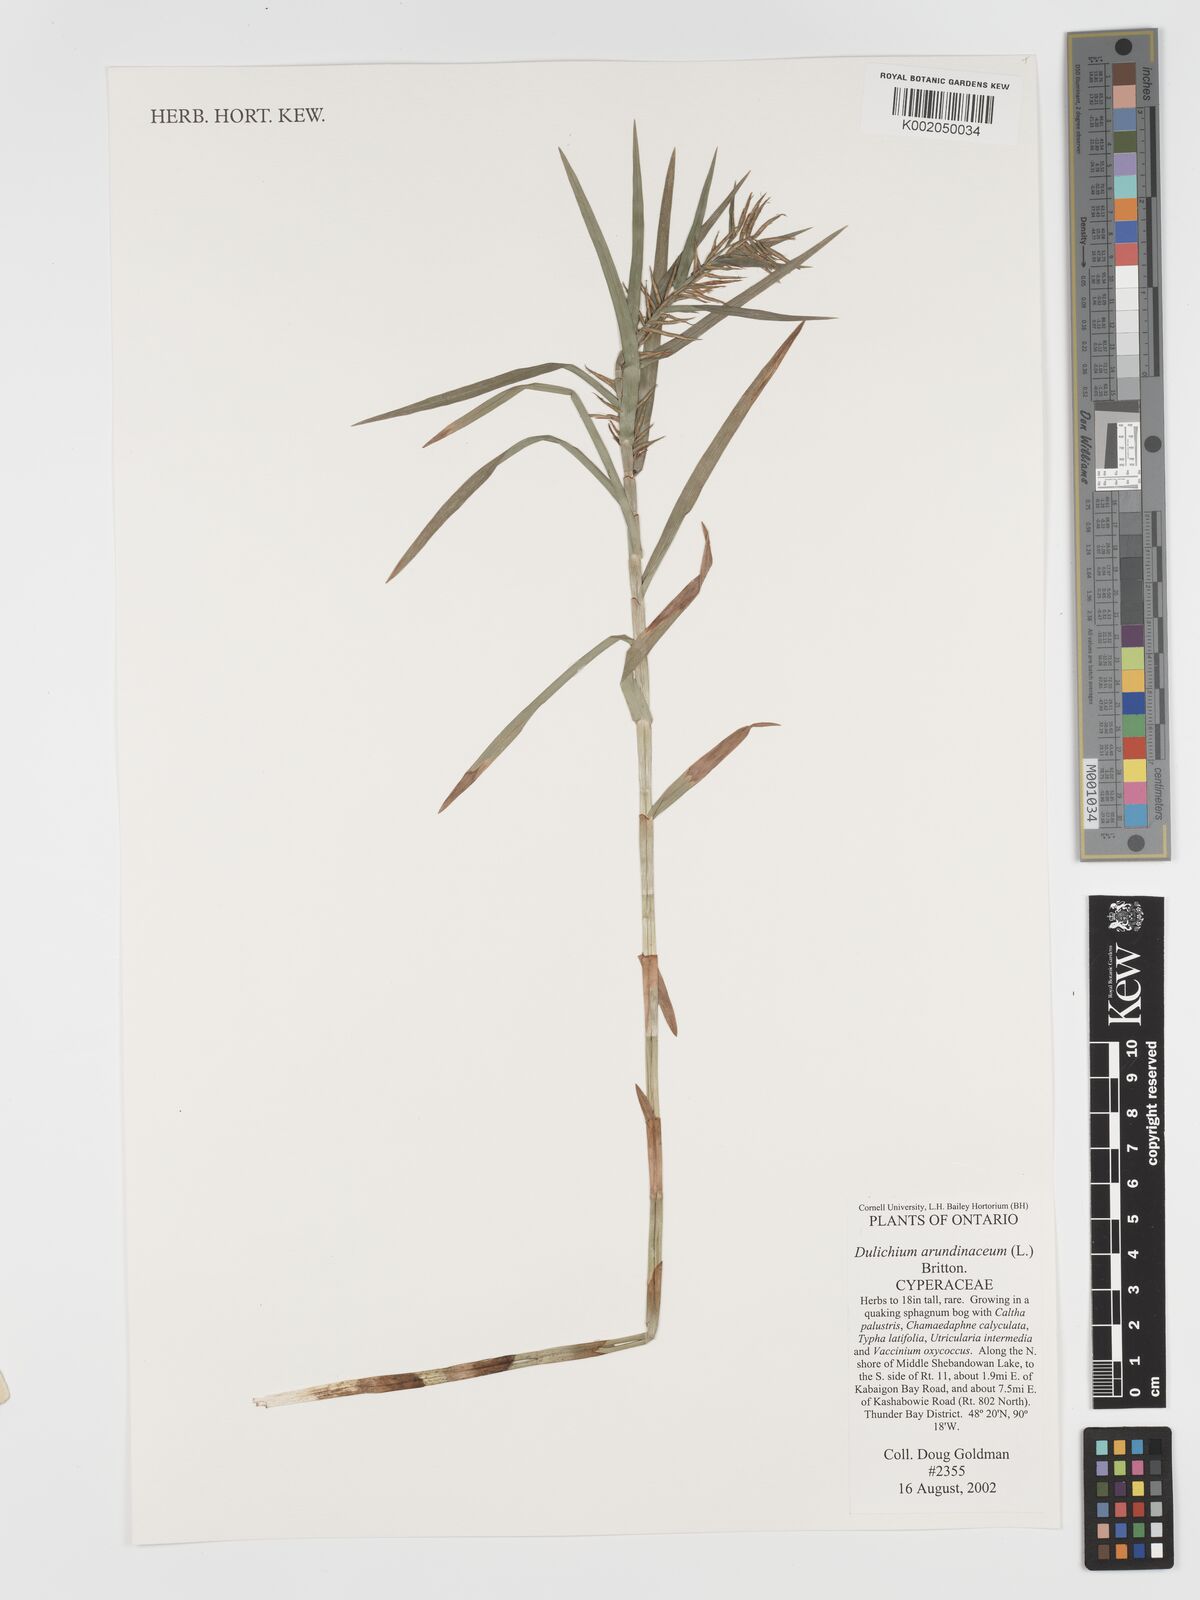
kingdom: Plantae
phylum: Tracheophyta
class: Liliopsida
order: Poales
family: Cyperaceae
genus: Dulichium
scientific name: Dulichium arundinaceum
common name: Three-way sedge
